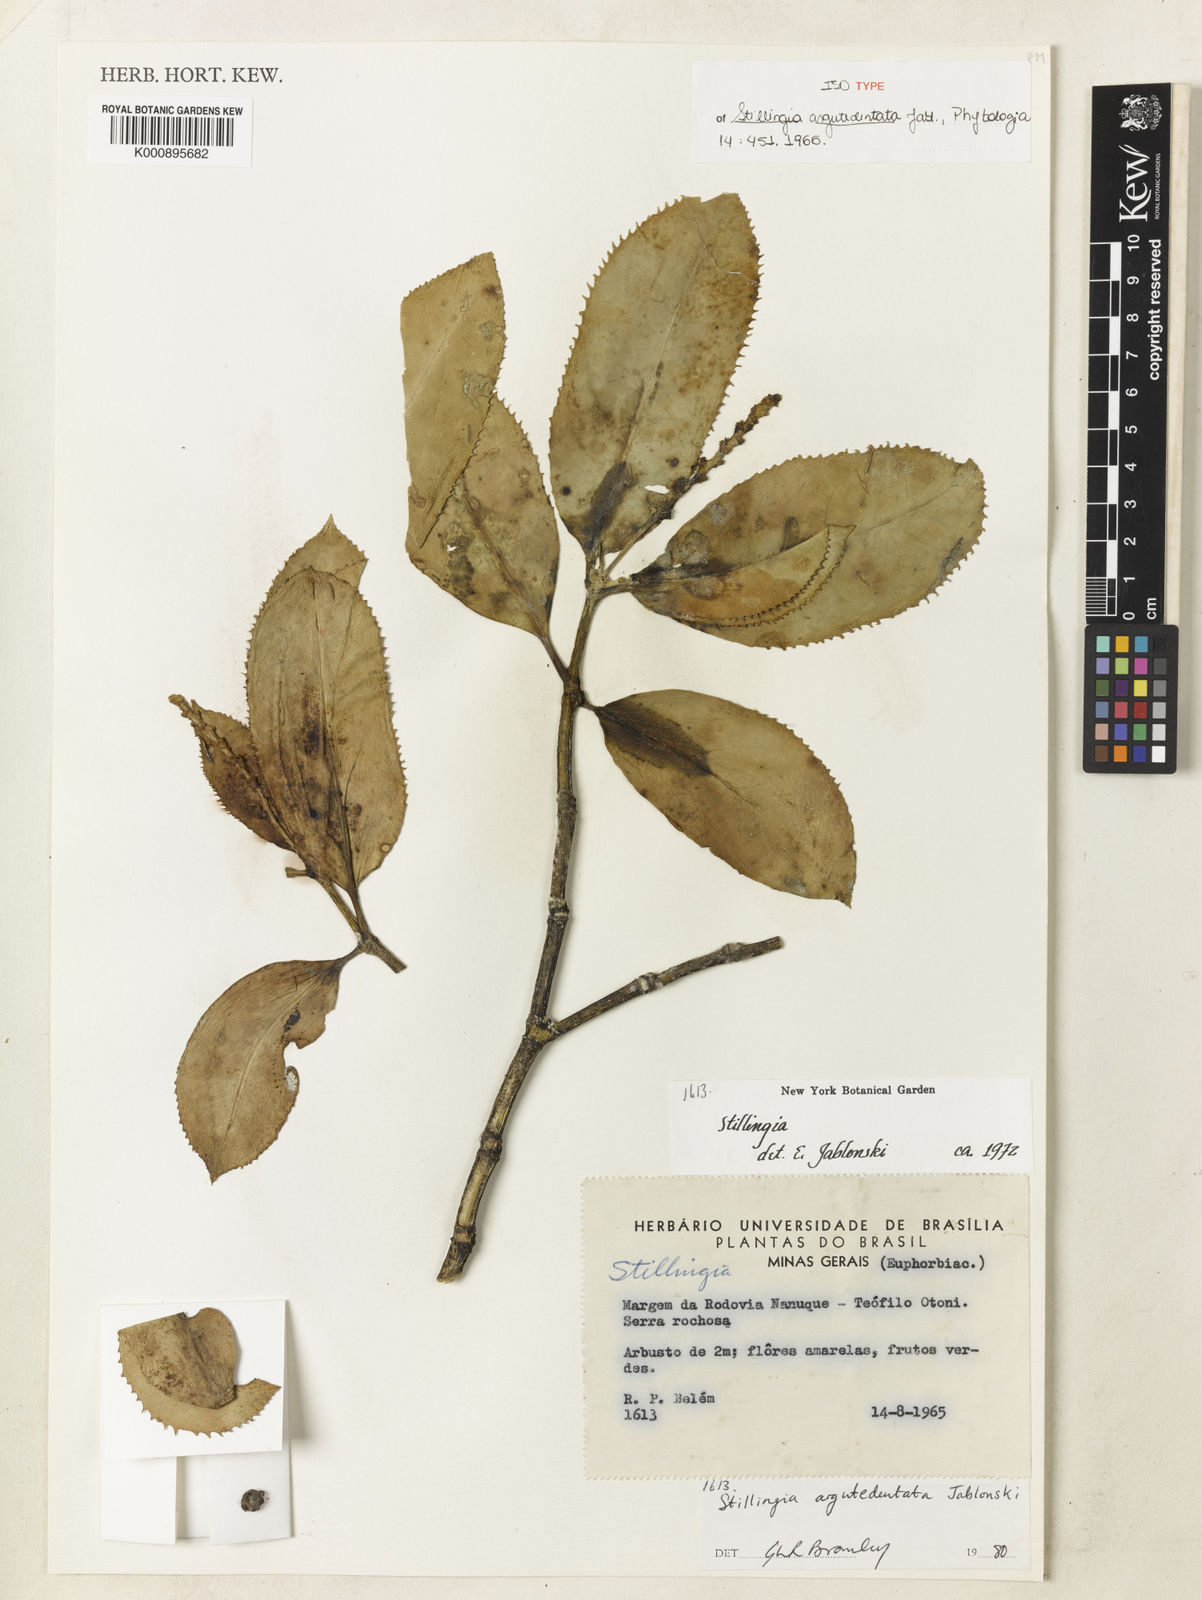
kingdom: Plantae
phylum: Tracheophyta
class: Magnoliopsida
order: Malpighiales
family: Euphorbiaceae
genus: Stillingia
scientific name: Stillingia argutedentata
